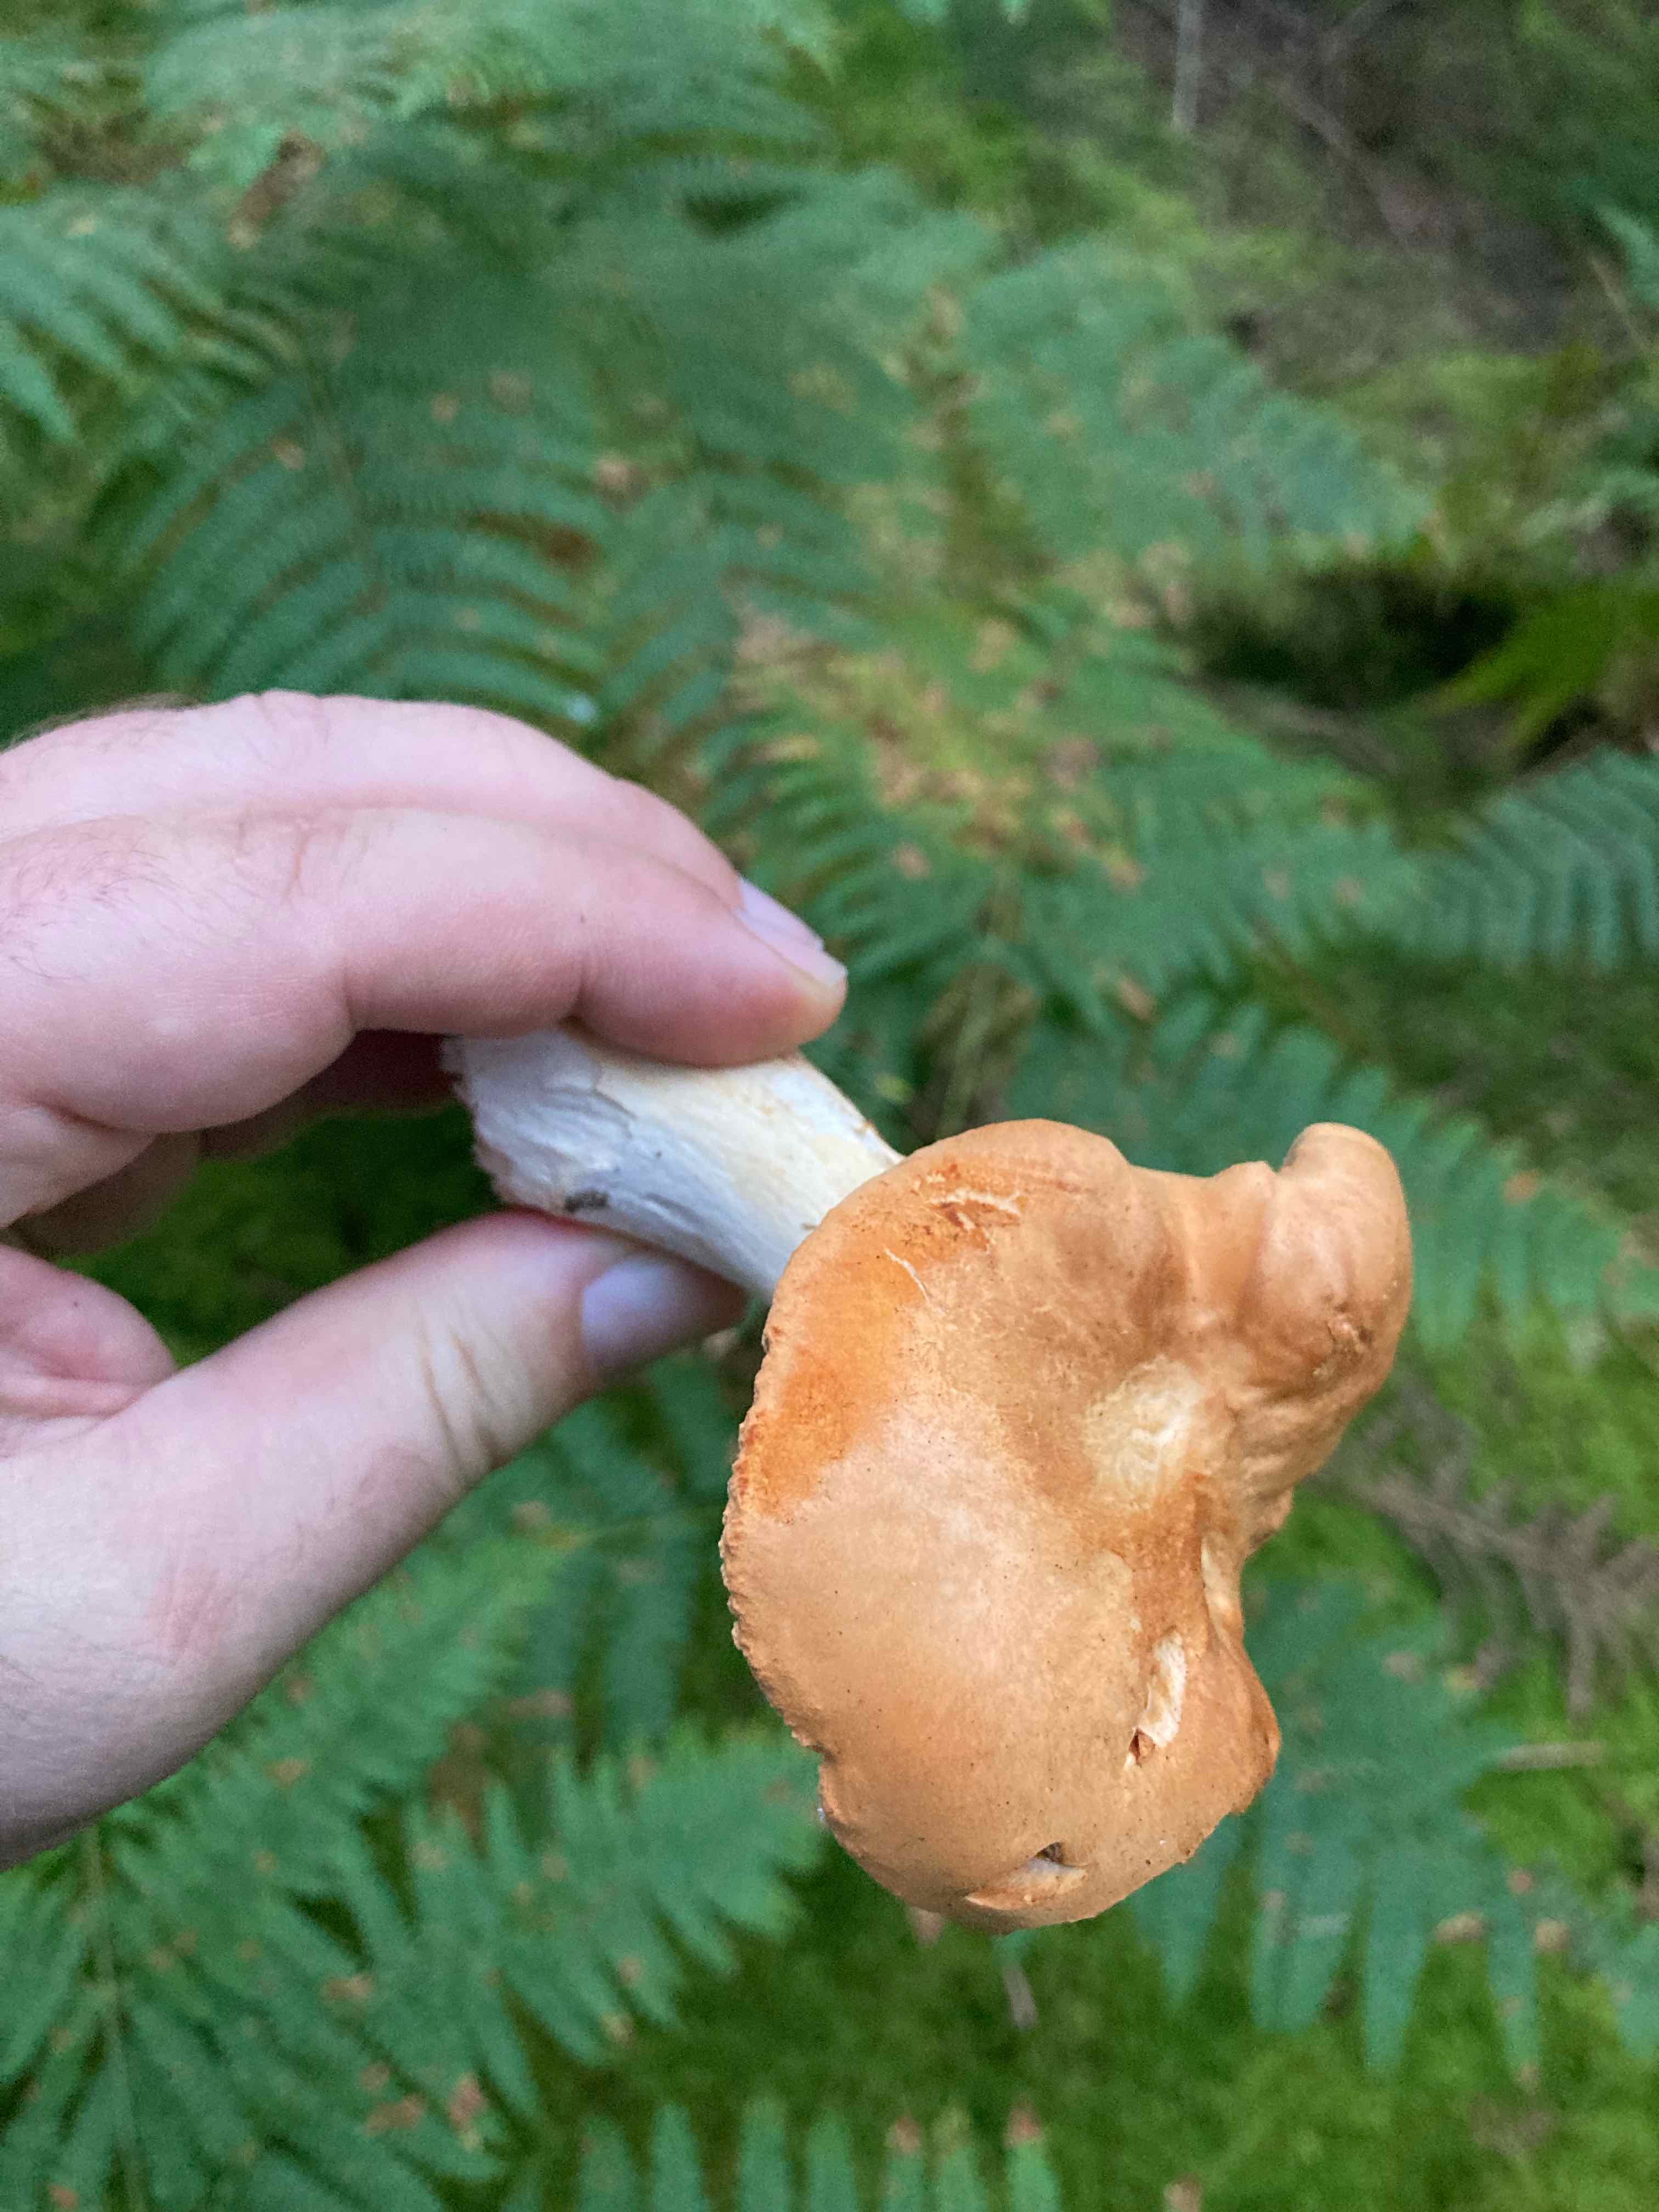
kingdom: Fungi
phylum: Basidiomycota
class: Agaricomycetes
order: Cantharellales
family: Hydnaceae
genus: Hydnum
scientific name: Hydnum rufescens
